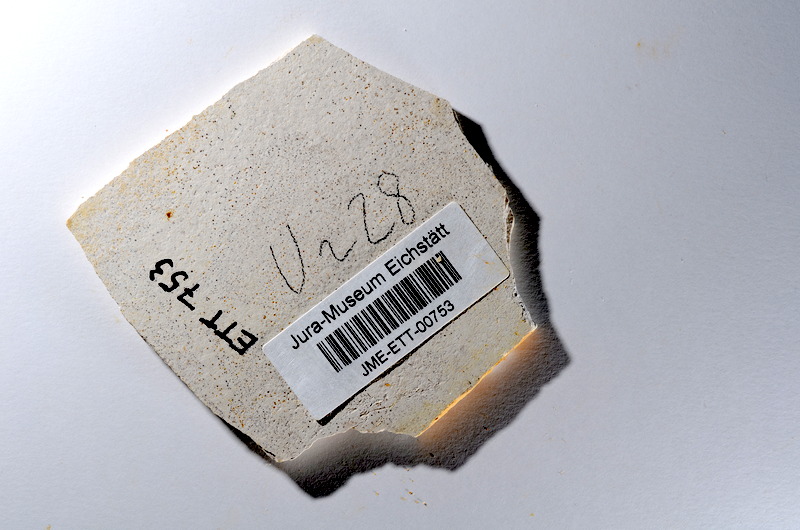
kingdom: Animalia
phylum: Chordata
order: Salmoniformes
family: Orthogonikleithridae
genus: Orthogonikleithrus
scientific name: Orthogonikleithrus hoelli
